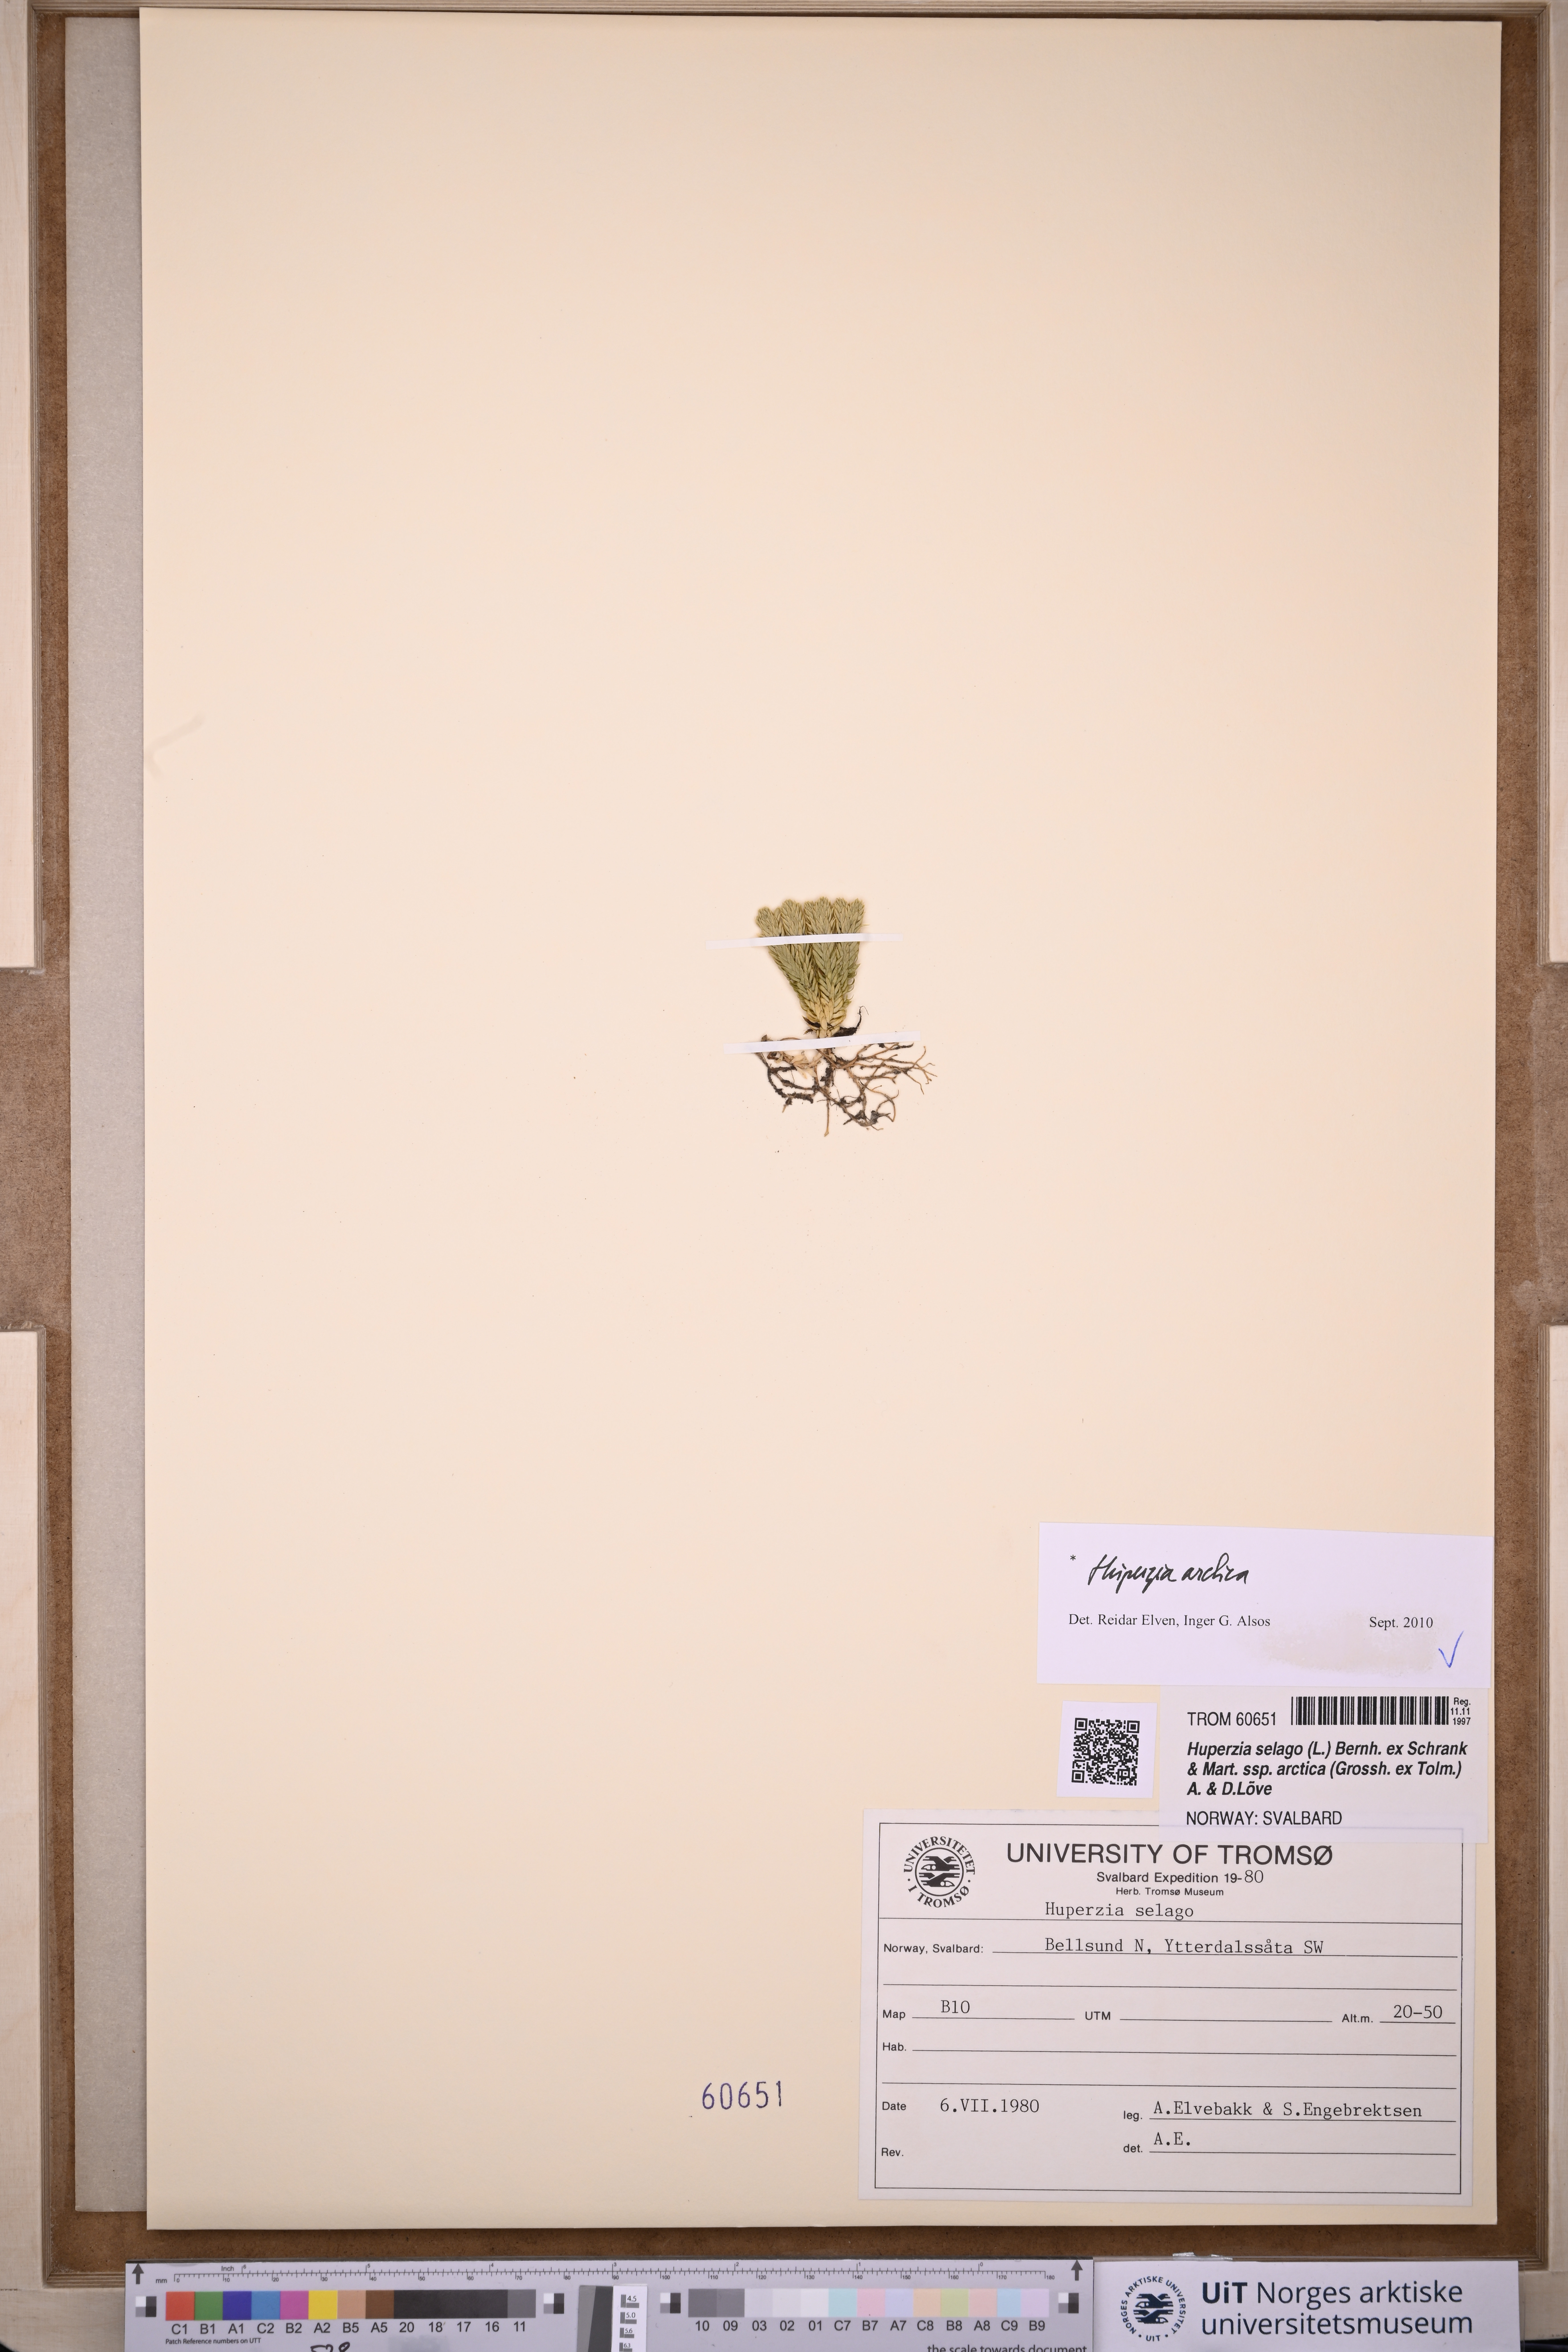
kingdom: Plantae
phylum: Tracheophyta
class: Lycopodiopsida
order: Lycopodiales
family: Lycopodiaceae
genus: Huperzia
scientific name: Huperzia selago
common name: Northern firmoss
